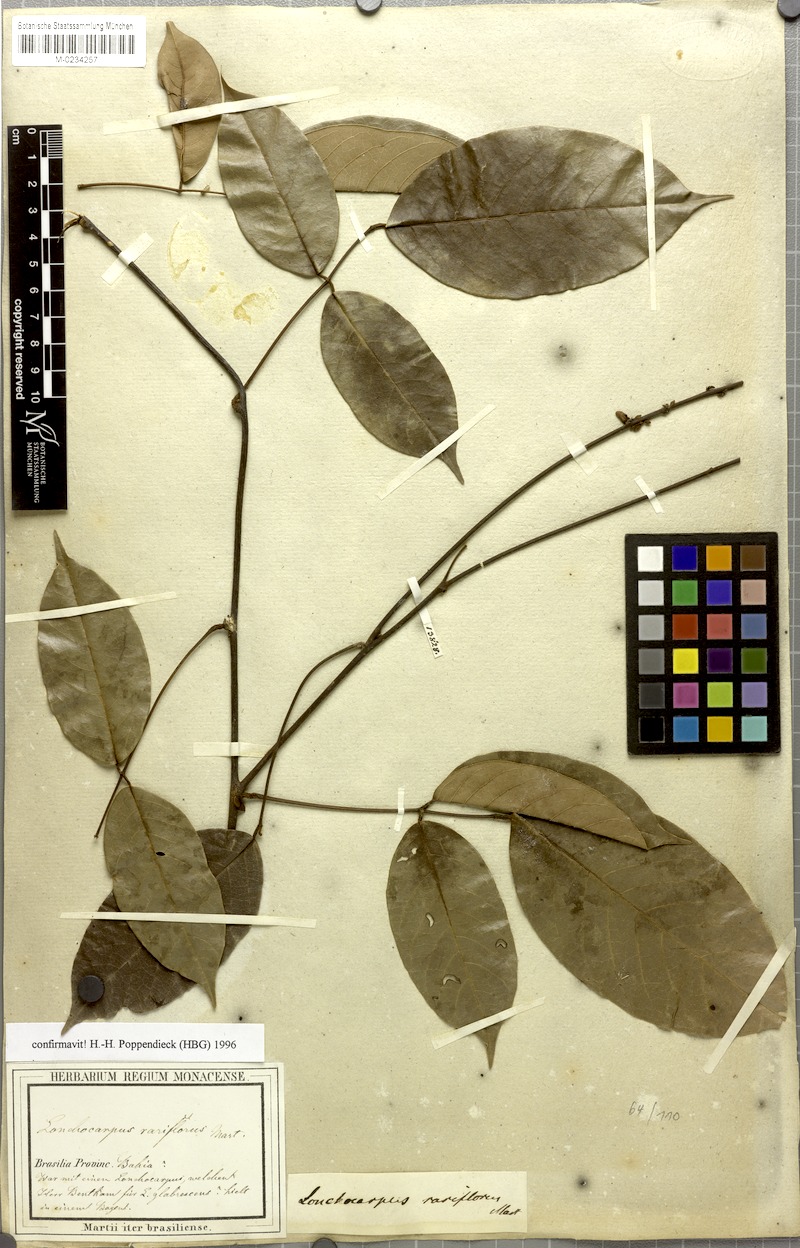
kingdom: Plantae
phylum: Tracheophyta
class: Magnoliopsida
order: Fabales
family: Fabaceae
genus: Deguelia
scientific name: Deguelia rariflora
